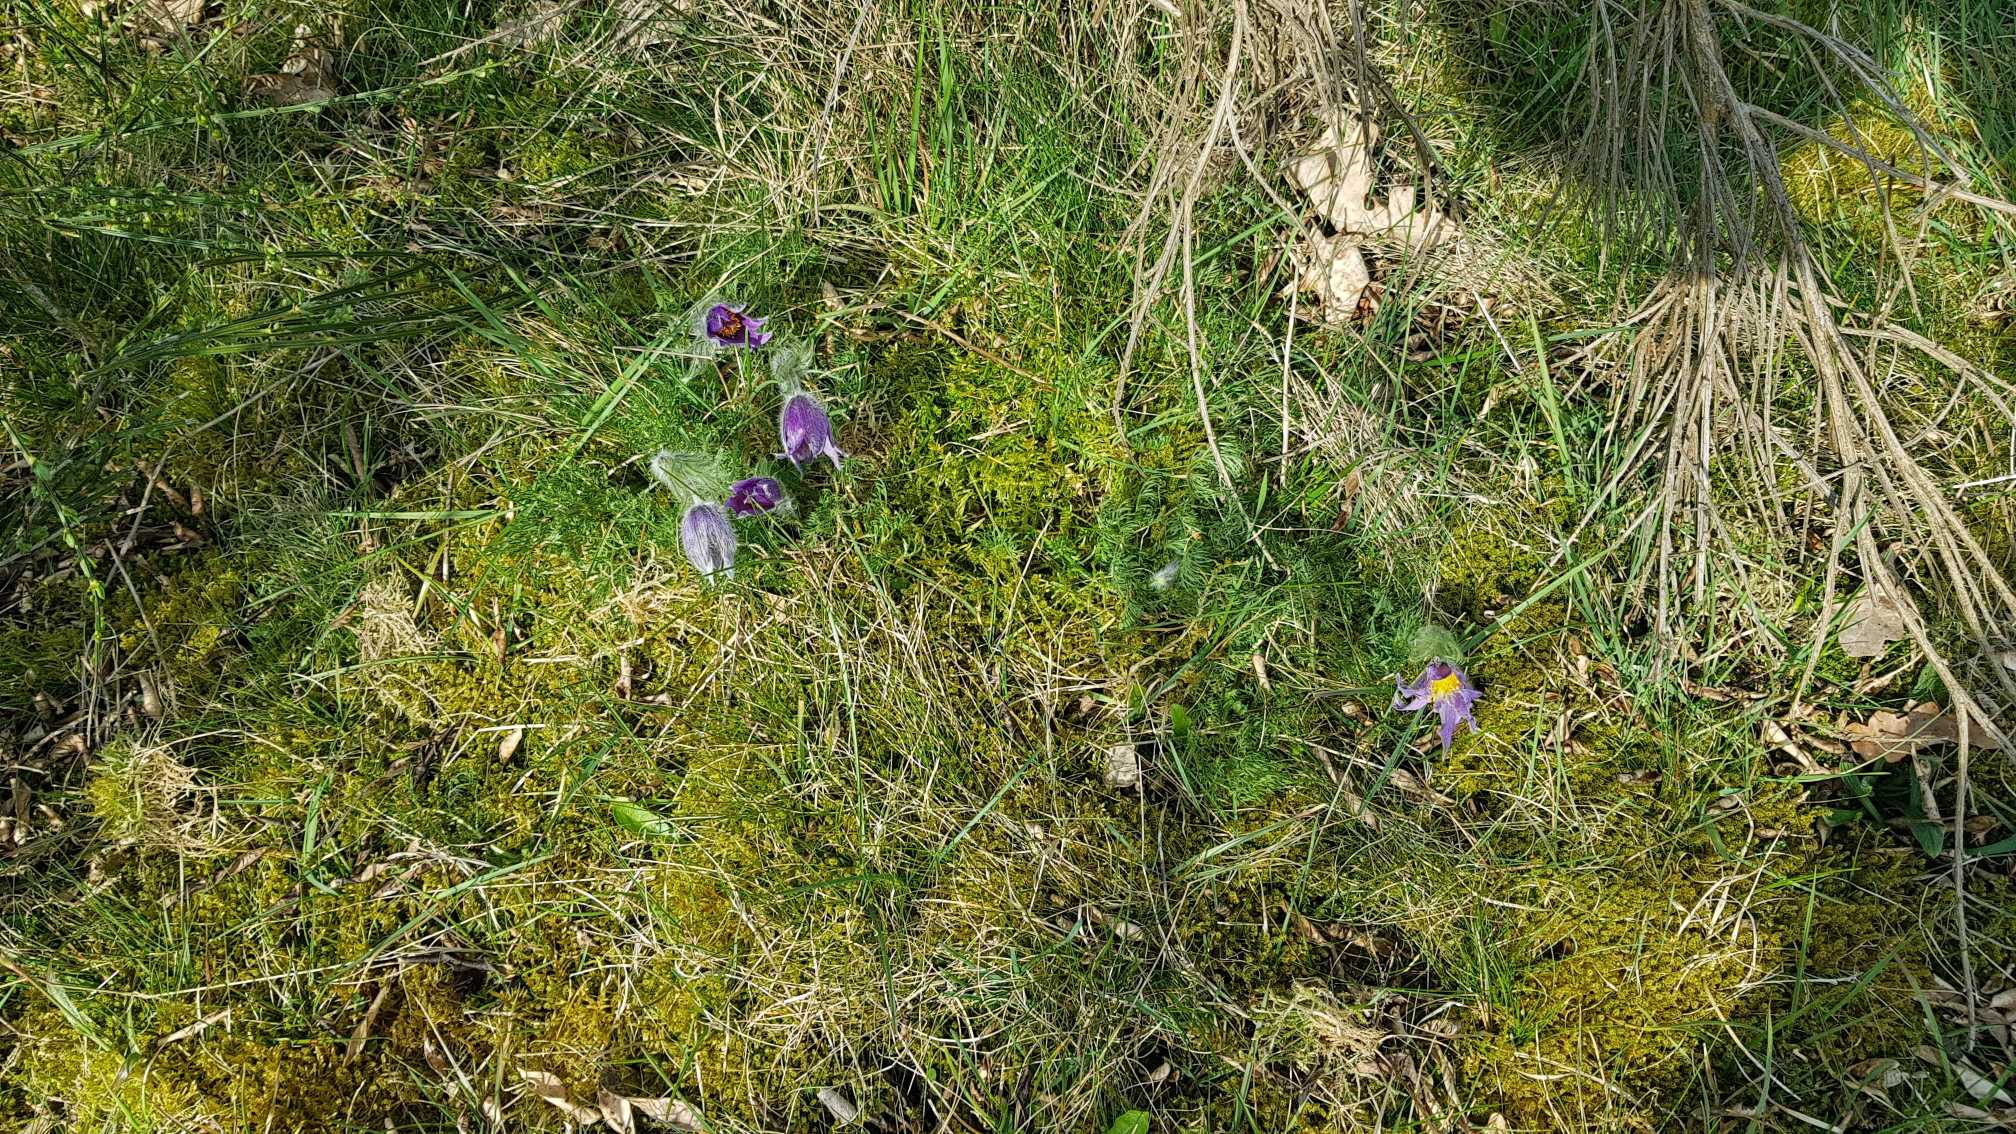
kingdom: Plantae
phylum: Tracheophyta
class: Magnoliopsida
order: Ranunculales
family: Ranunculaceae
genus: Pulsatilla
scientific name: Pulsatilla vulgaris
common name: Opret kobjælde
